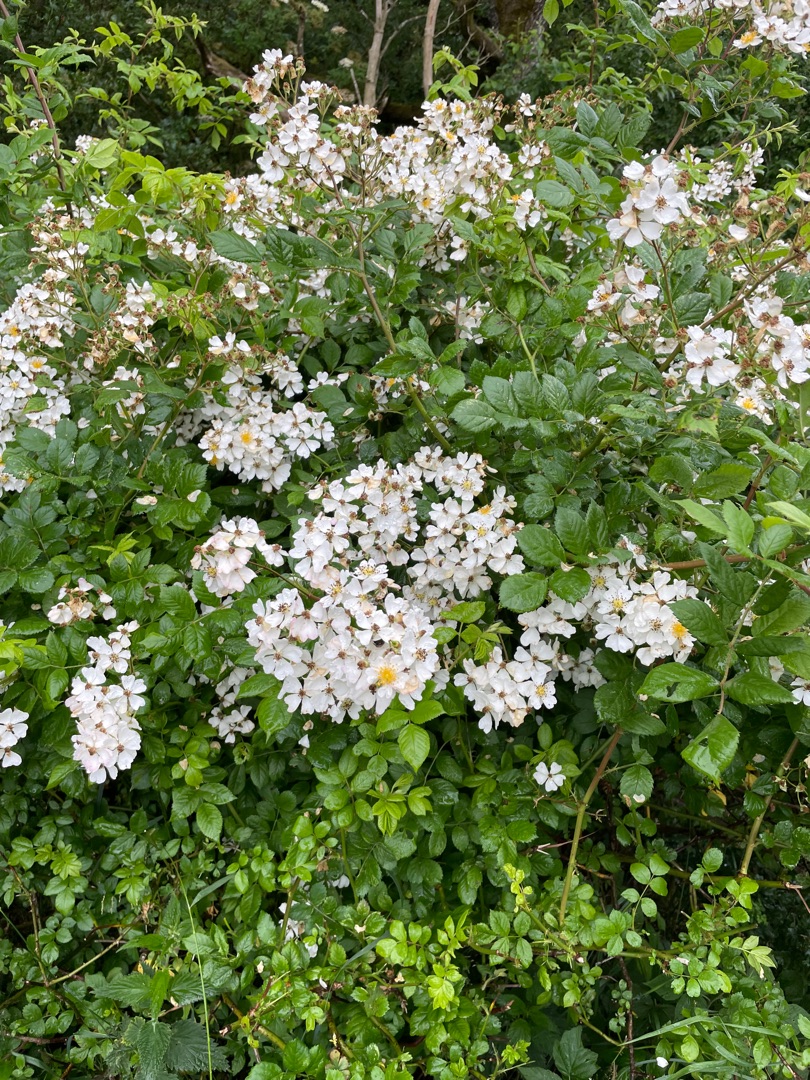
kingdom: Plantae
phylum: Tracheophyta
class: Magnoliopsida
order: Rosales
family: Rosaceae
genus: Rosa
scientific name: Rosa multiflora
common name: Mangeblomstret rose
